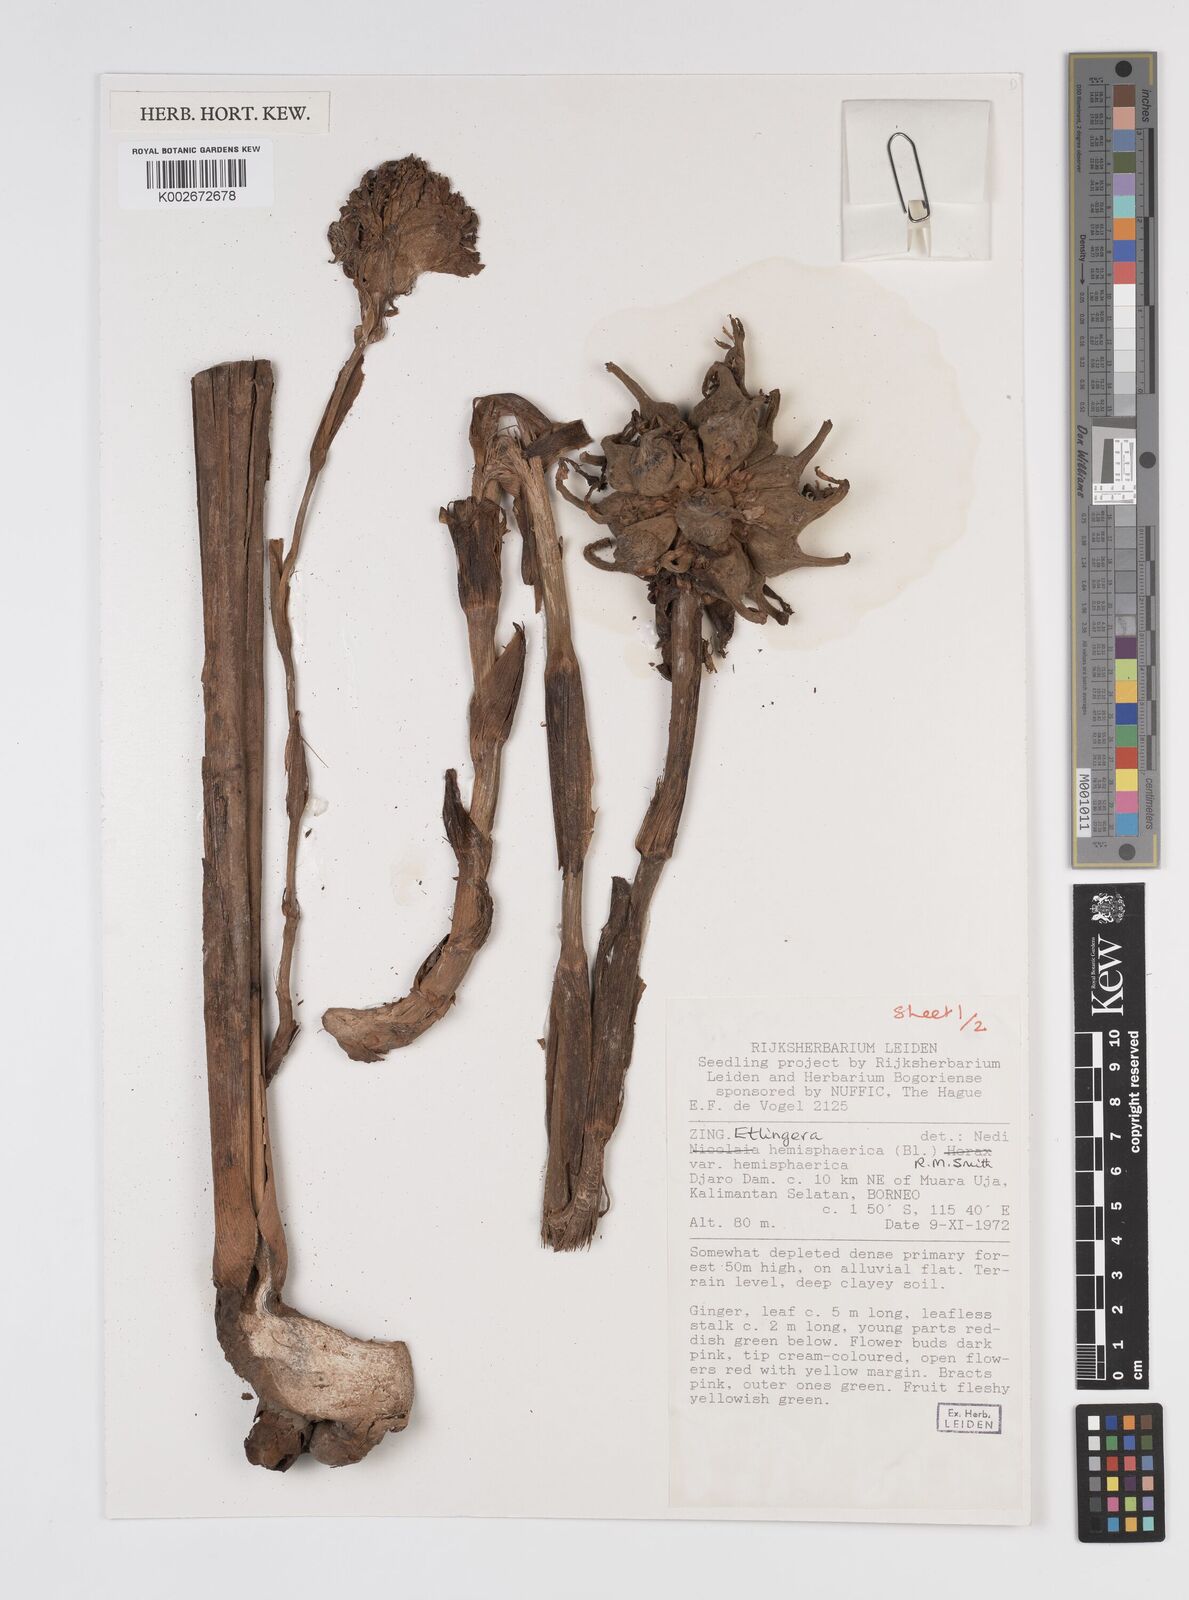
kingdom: Plantae
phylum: Tracheophyta
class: Liliopsida
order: Zingiberales
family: Zingiberaceae
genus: Etlingera
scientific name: Etlingera hemisphaerica
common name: Black tulip
